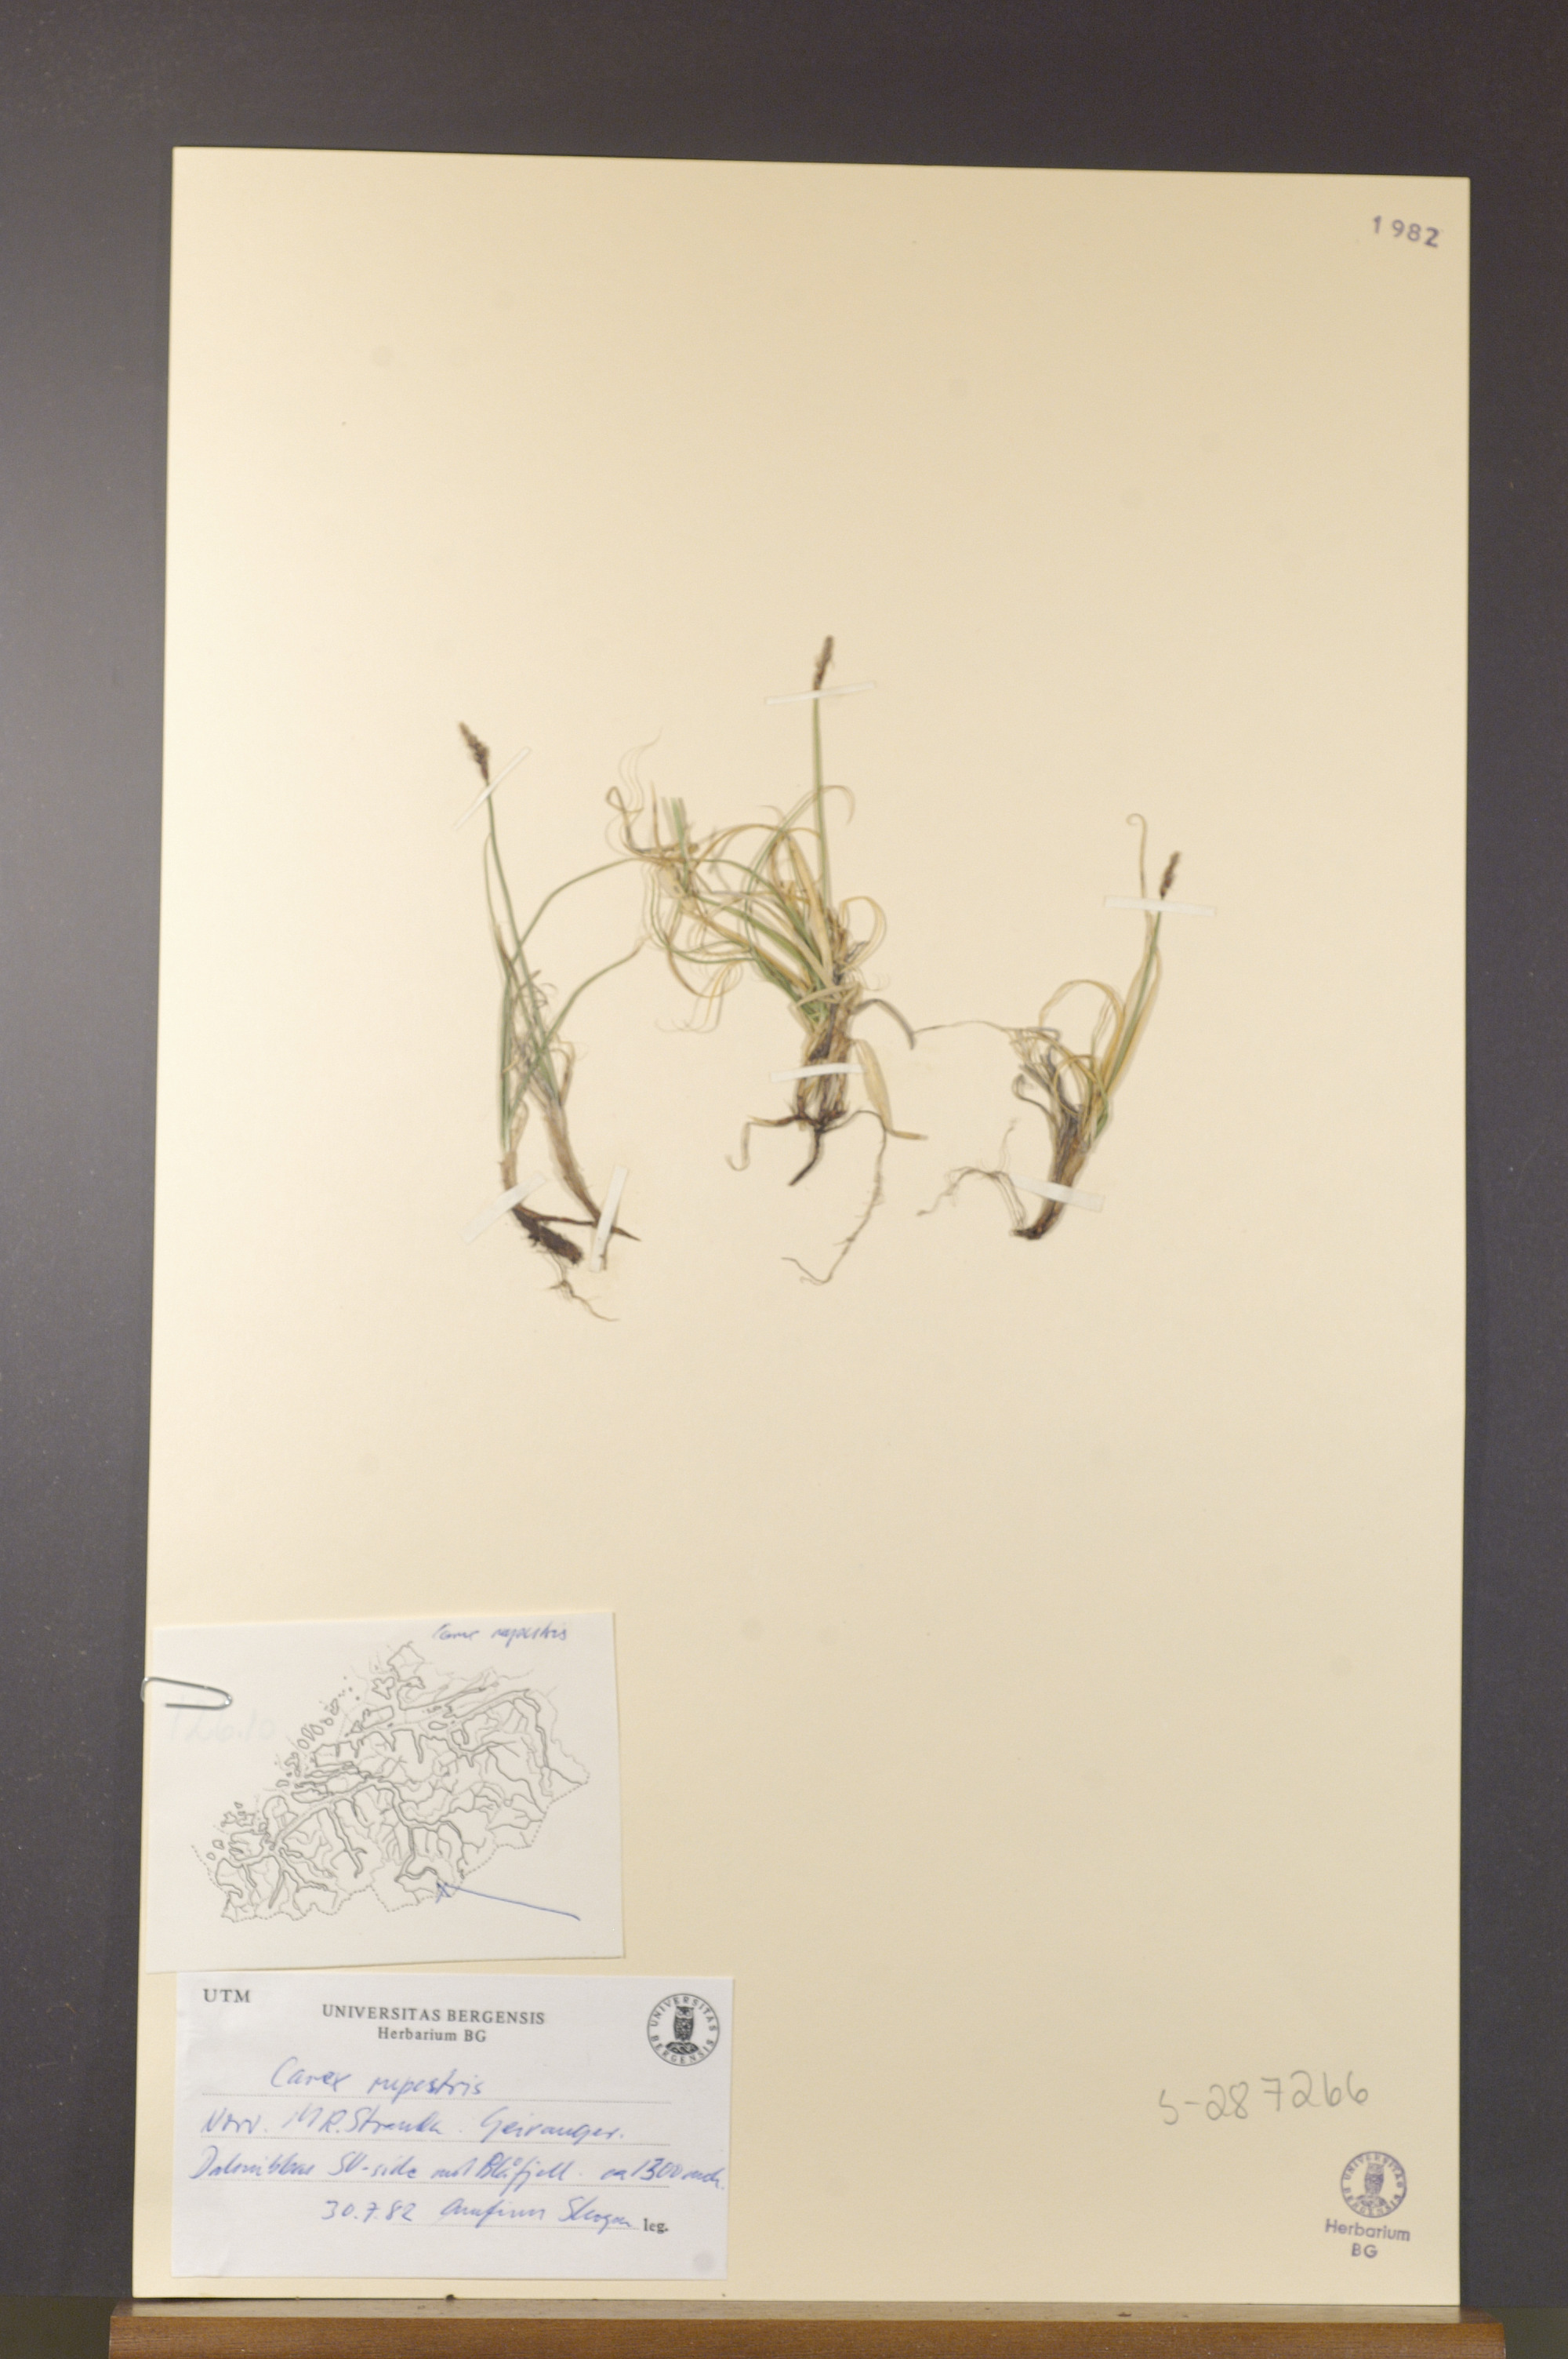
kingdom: Plantae
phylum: Tracheophyta
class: Liliopsida
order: Poales
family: Cyperaceae
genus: Carex
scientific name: Carex rupestris
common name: Rock sedge
